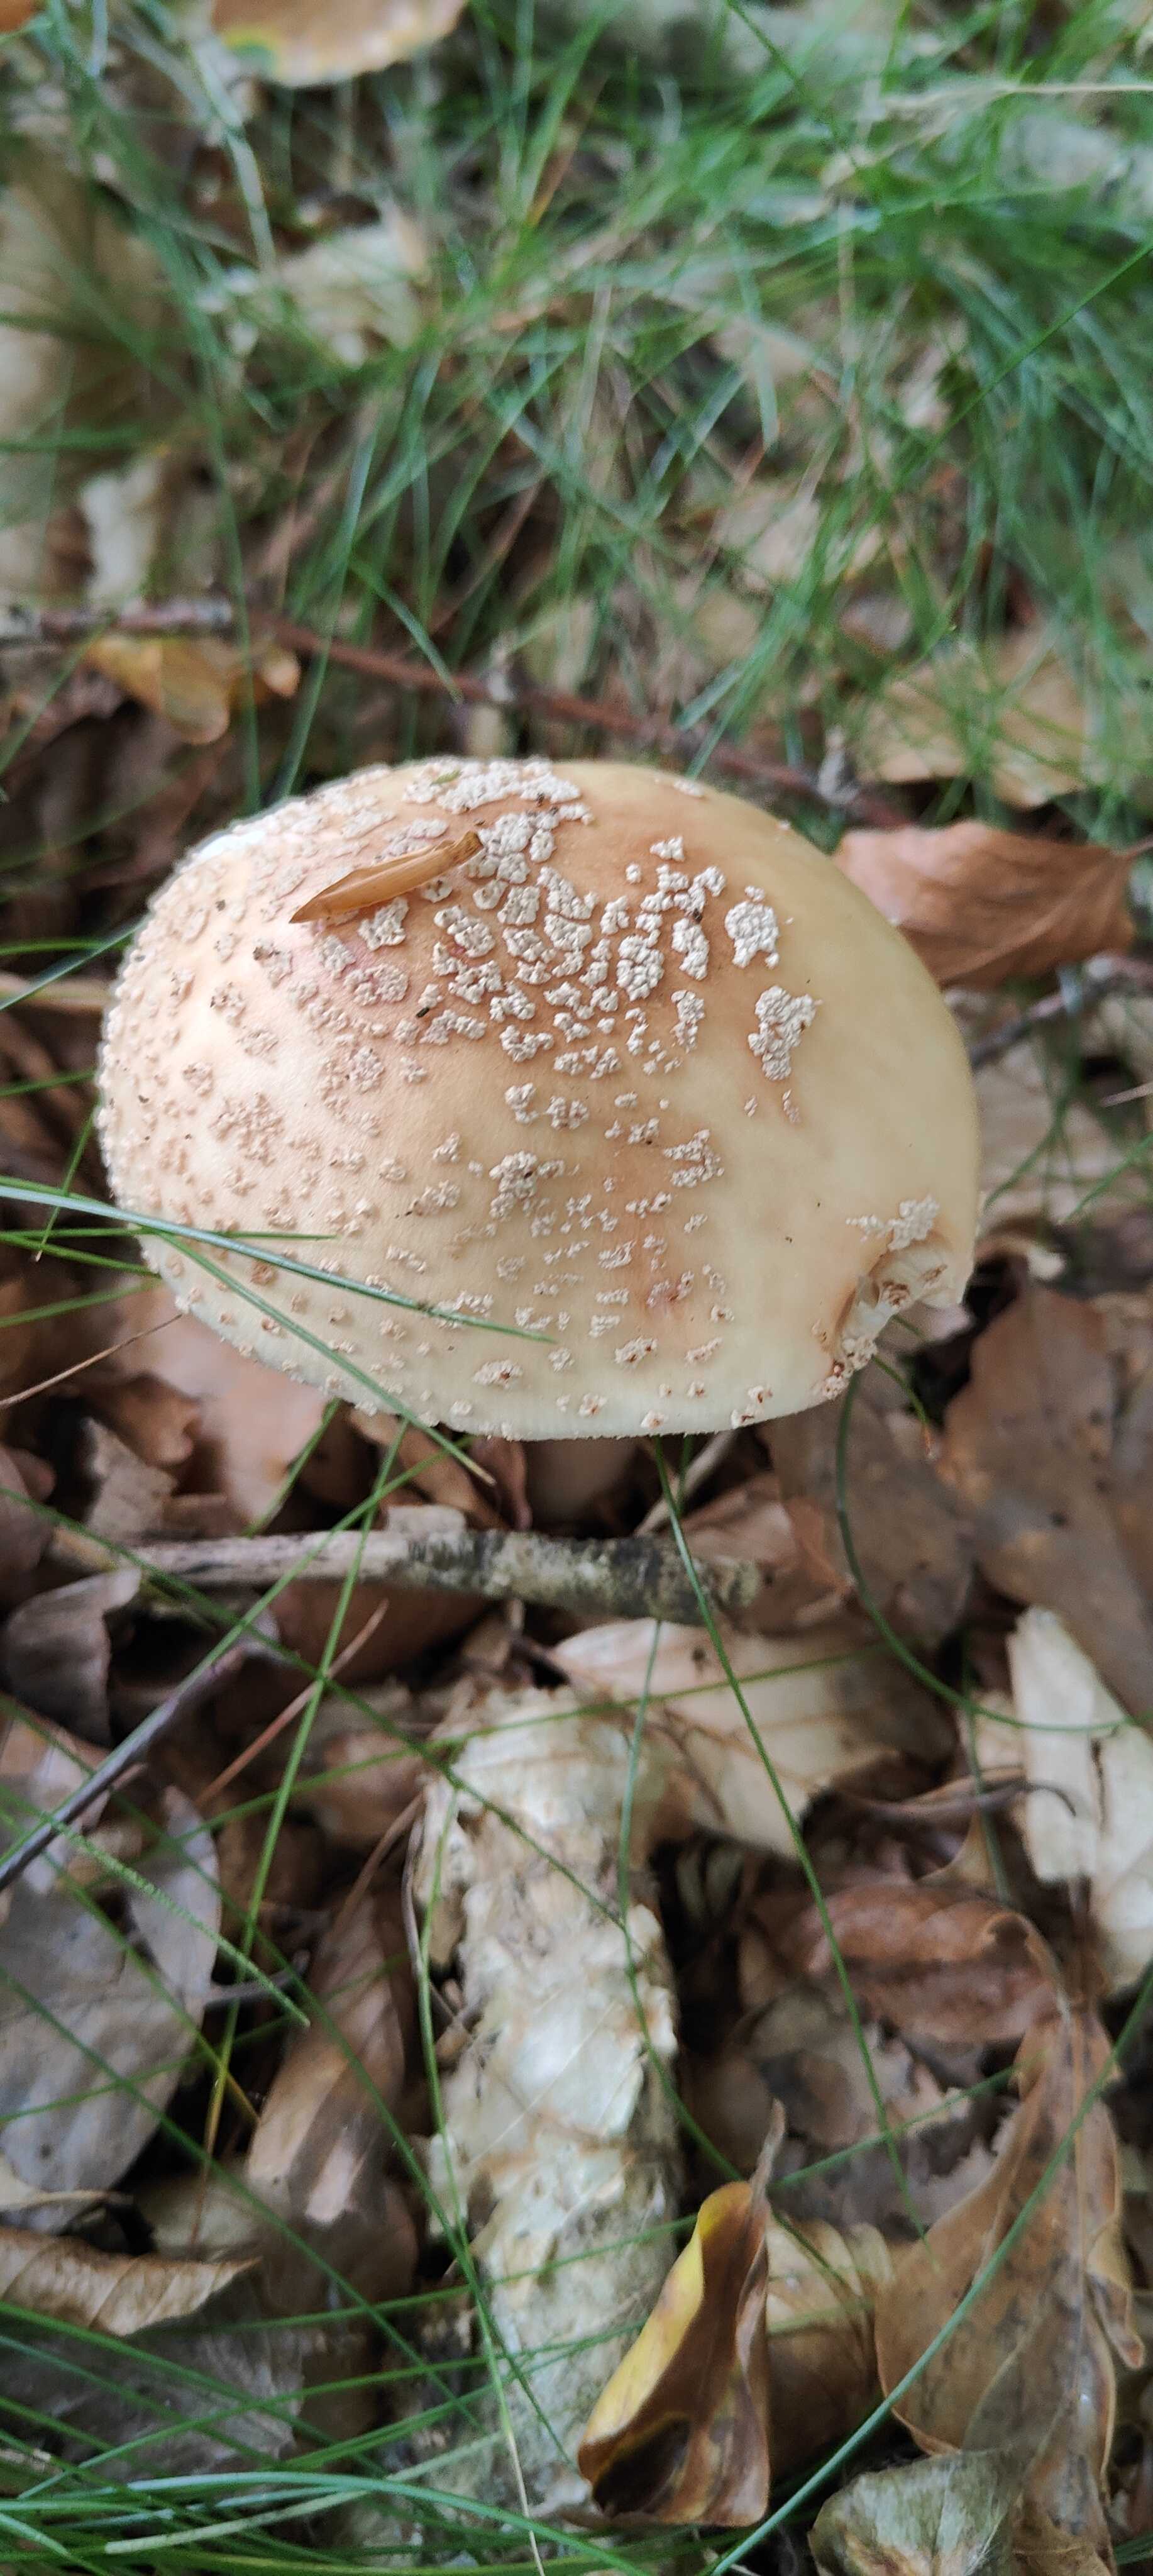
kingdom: Fungi
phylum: Basidiomycota
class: Agaricomycetes
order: Agaricales
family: Amanitaceae
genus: Amanita
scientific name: Amanita rubescens
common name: rødmende fluesvamp
